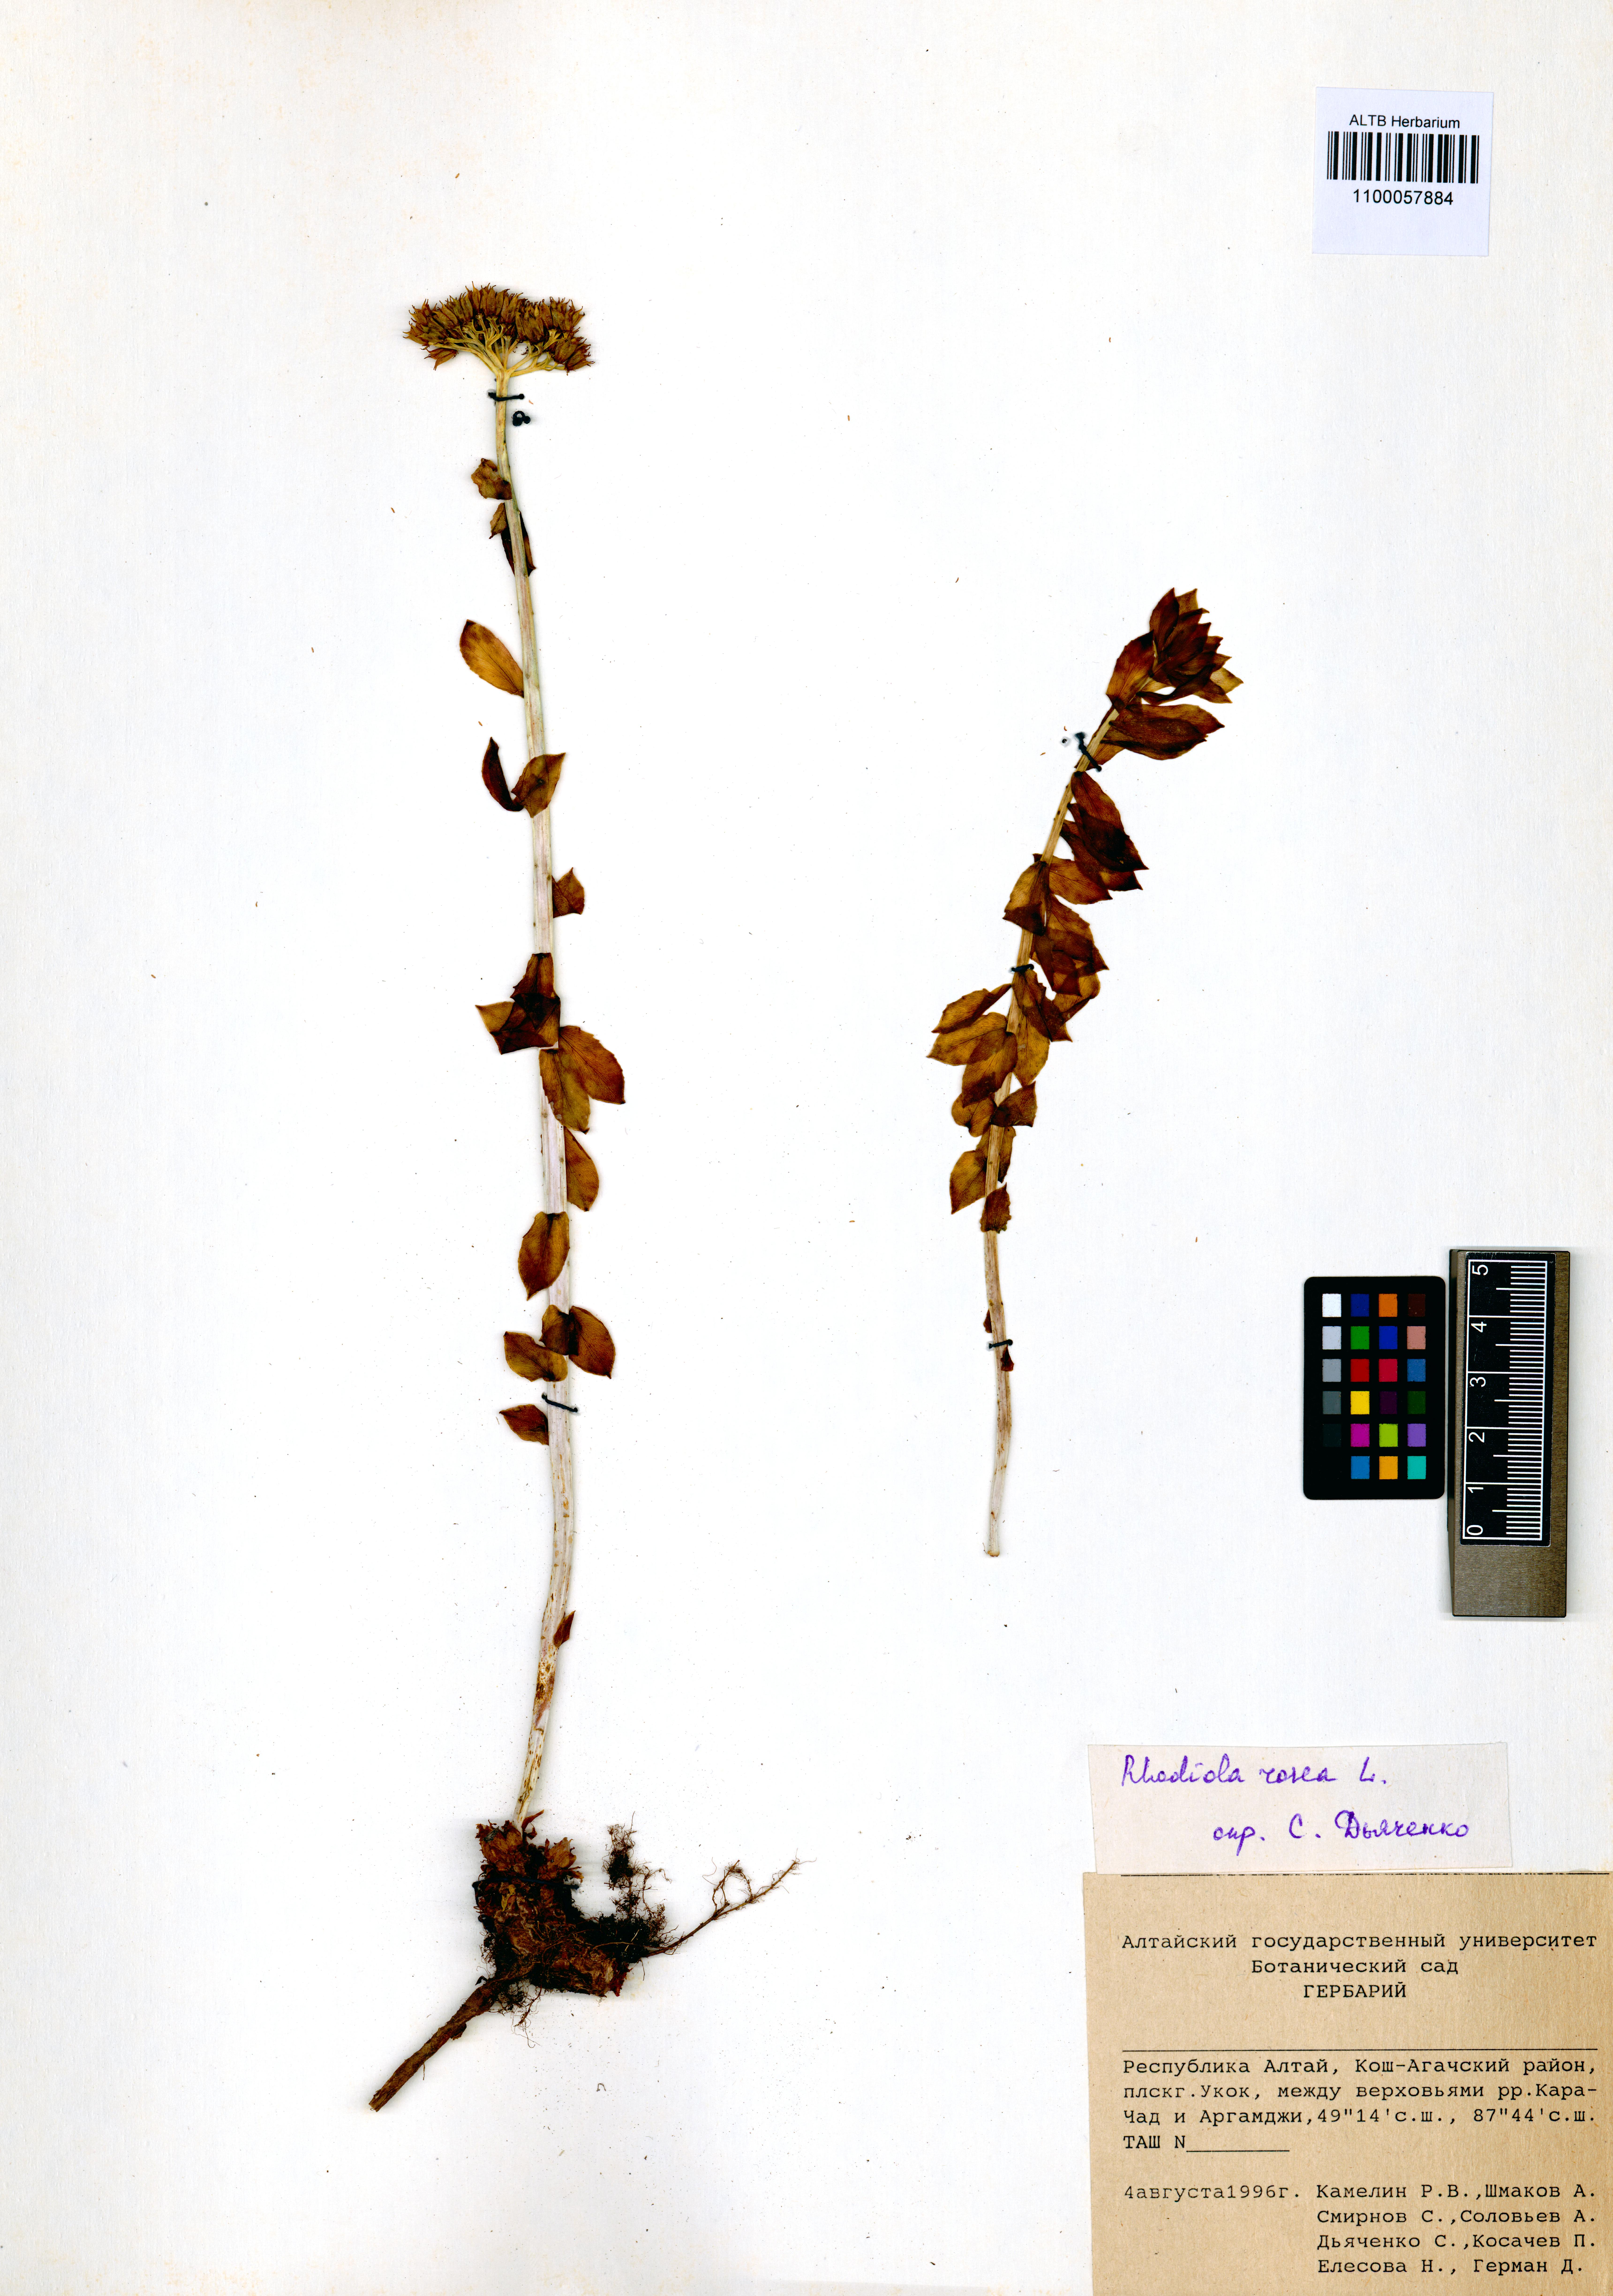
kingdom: Plantae
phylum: Tracheophyta
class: Magnoliopsida
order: Saxifragales
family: Crassulaceae
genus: Rhodiola
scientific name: Rhodiola rosea
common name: Roseroot
